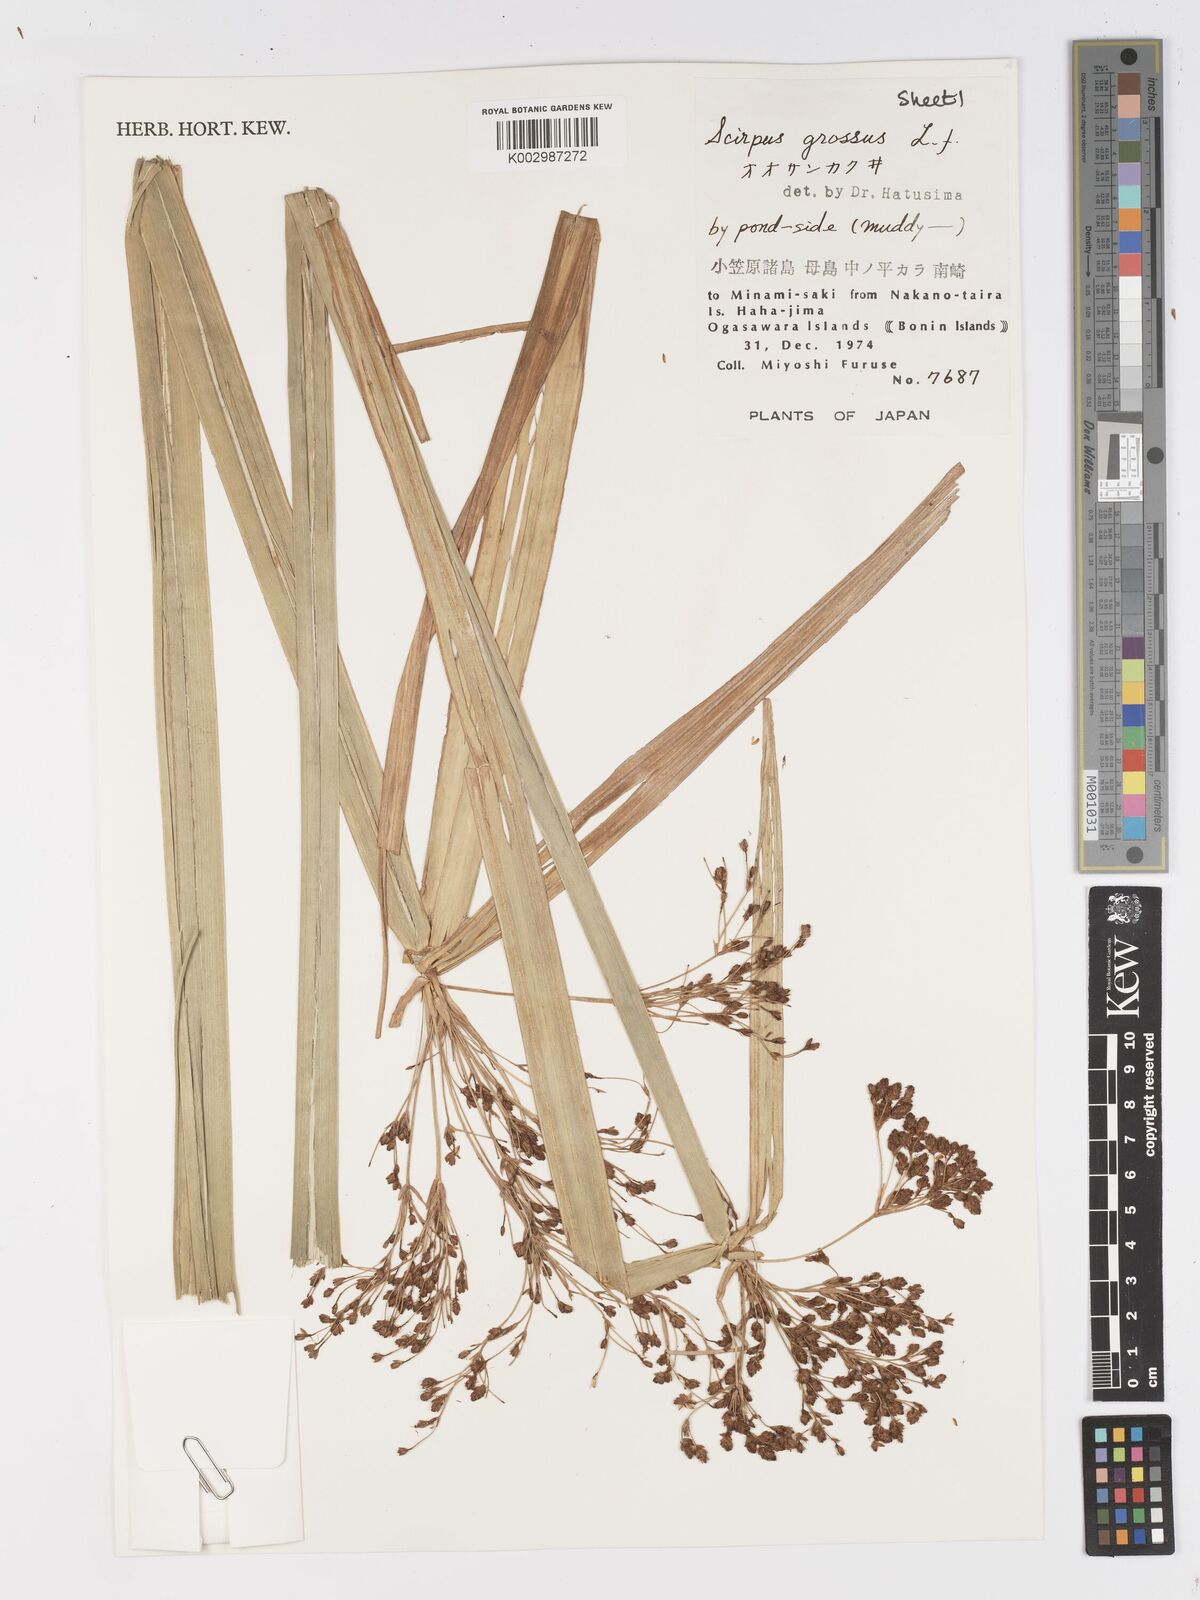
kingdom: Plantae
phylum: Tracheophyta
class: Liliopsida
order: Poales
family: Cyperaceae
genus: Actinoscirpus
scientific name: Actinoscirpus grossus
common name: Giant bur rush
